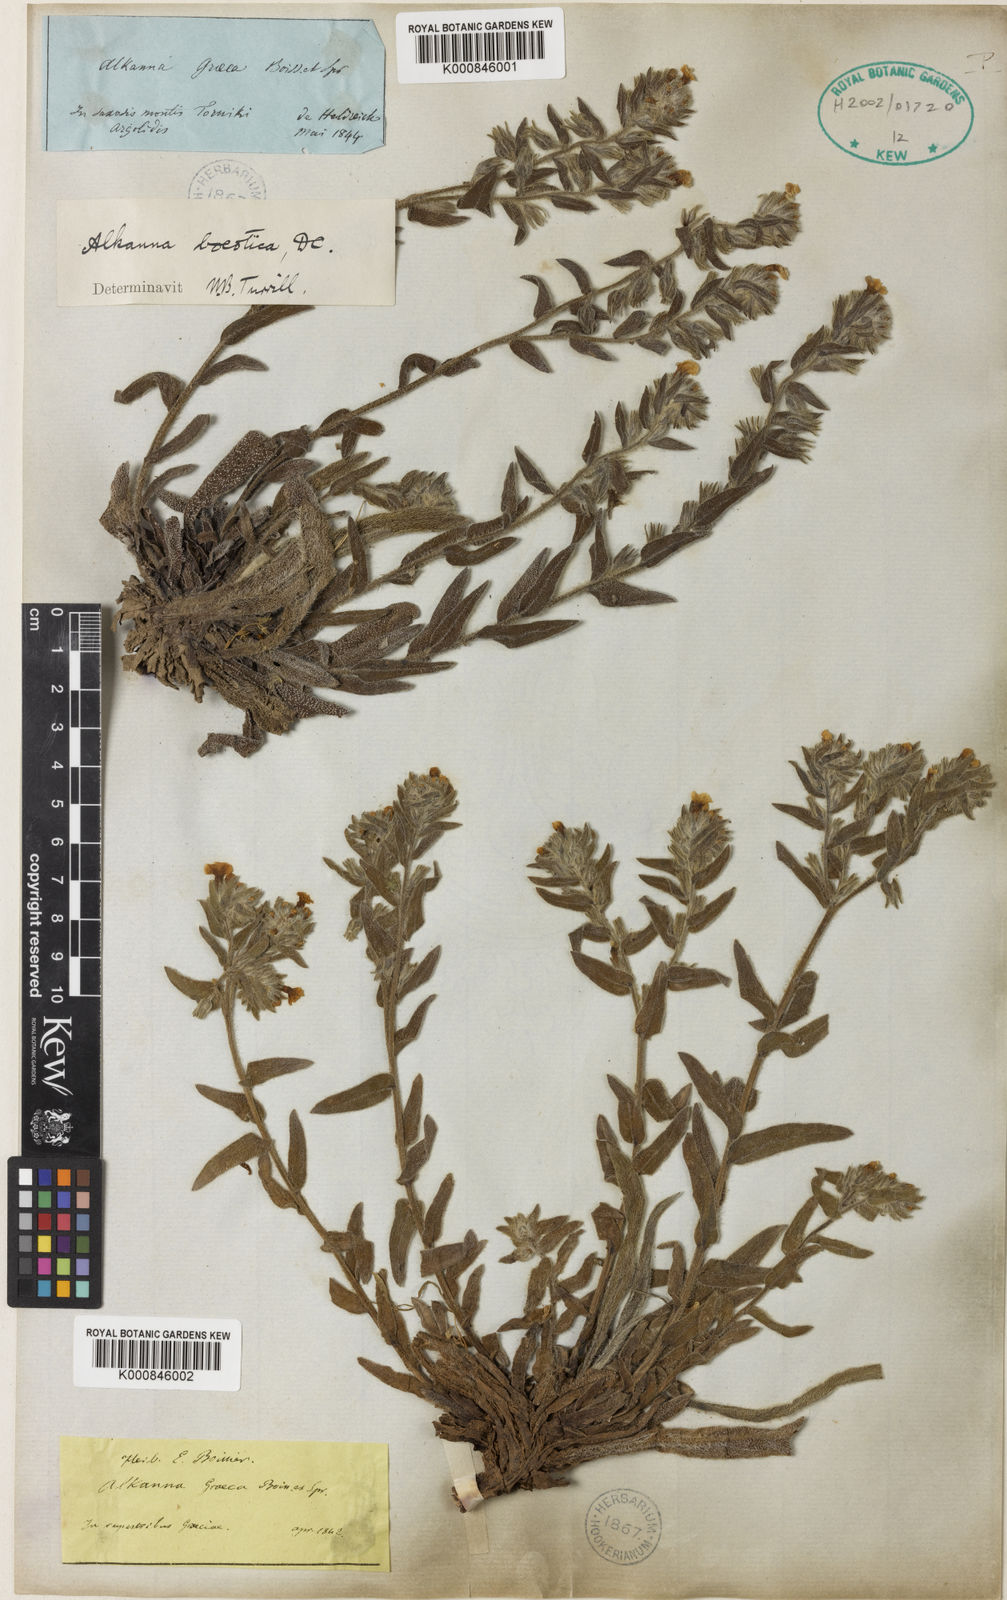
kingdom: Plantae
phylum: Tracheophyta
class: Magnoliopsida
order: Boraginales
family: Boraginaceae
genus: Alkanna
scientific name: Alkanna graeca
